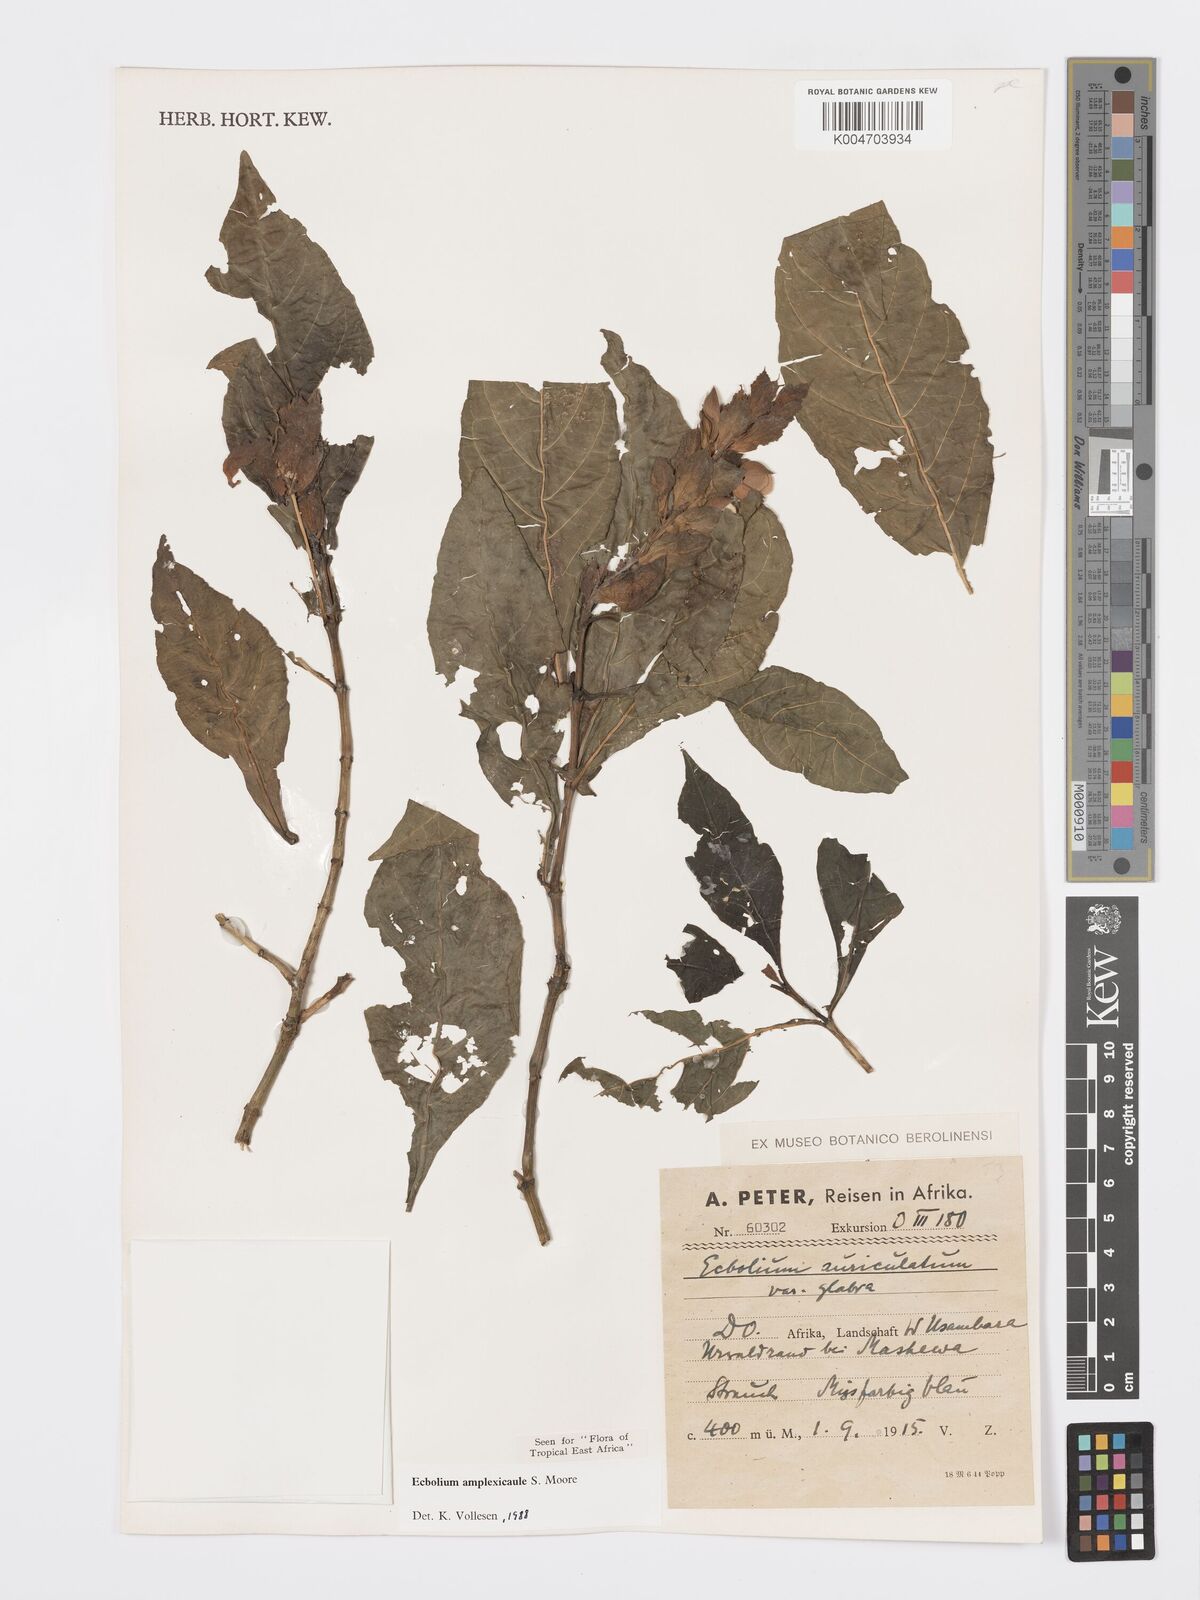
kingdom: Plantae
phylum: Tracheophyta
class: Magnoliopsida
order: Lamiales
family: Acanthaceae
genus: Ecbolium
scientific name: Ecbolium amplexicaule
